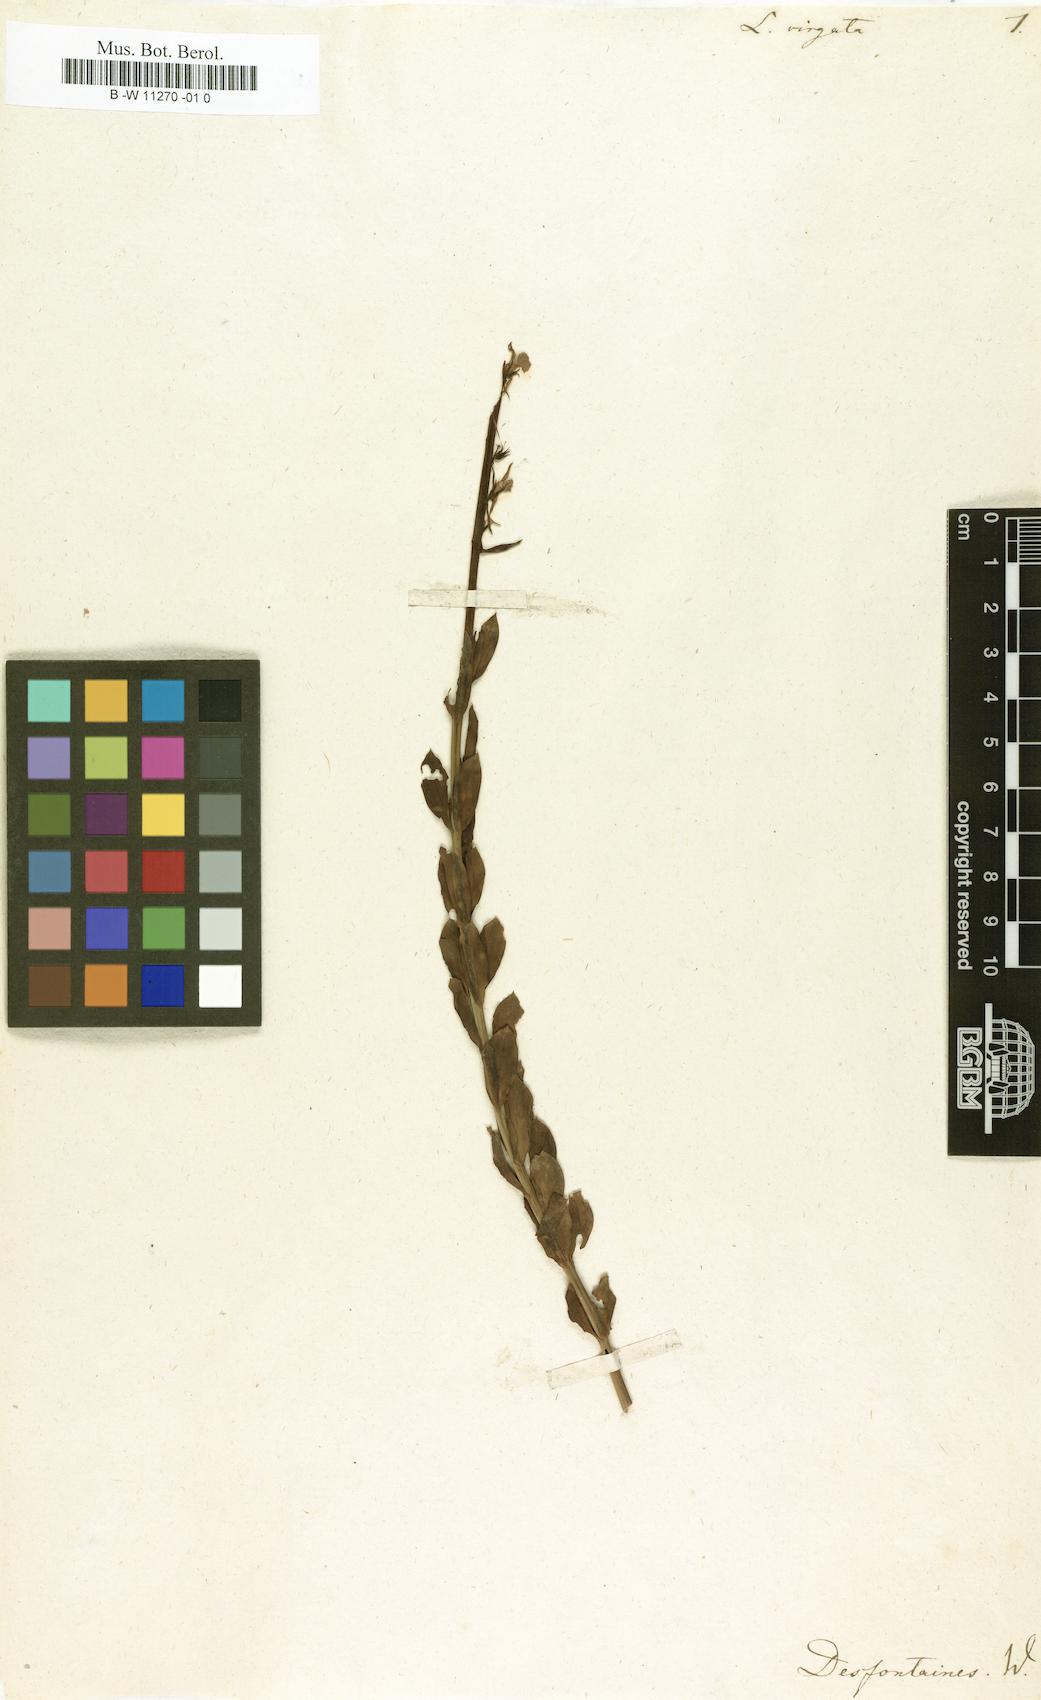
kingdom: Plantae
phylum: Tracheophyta
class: Magnoliopsida
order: Lamiales
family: Plantaginaceae
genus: Linaria
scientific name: Linaria virgata
